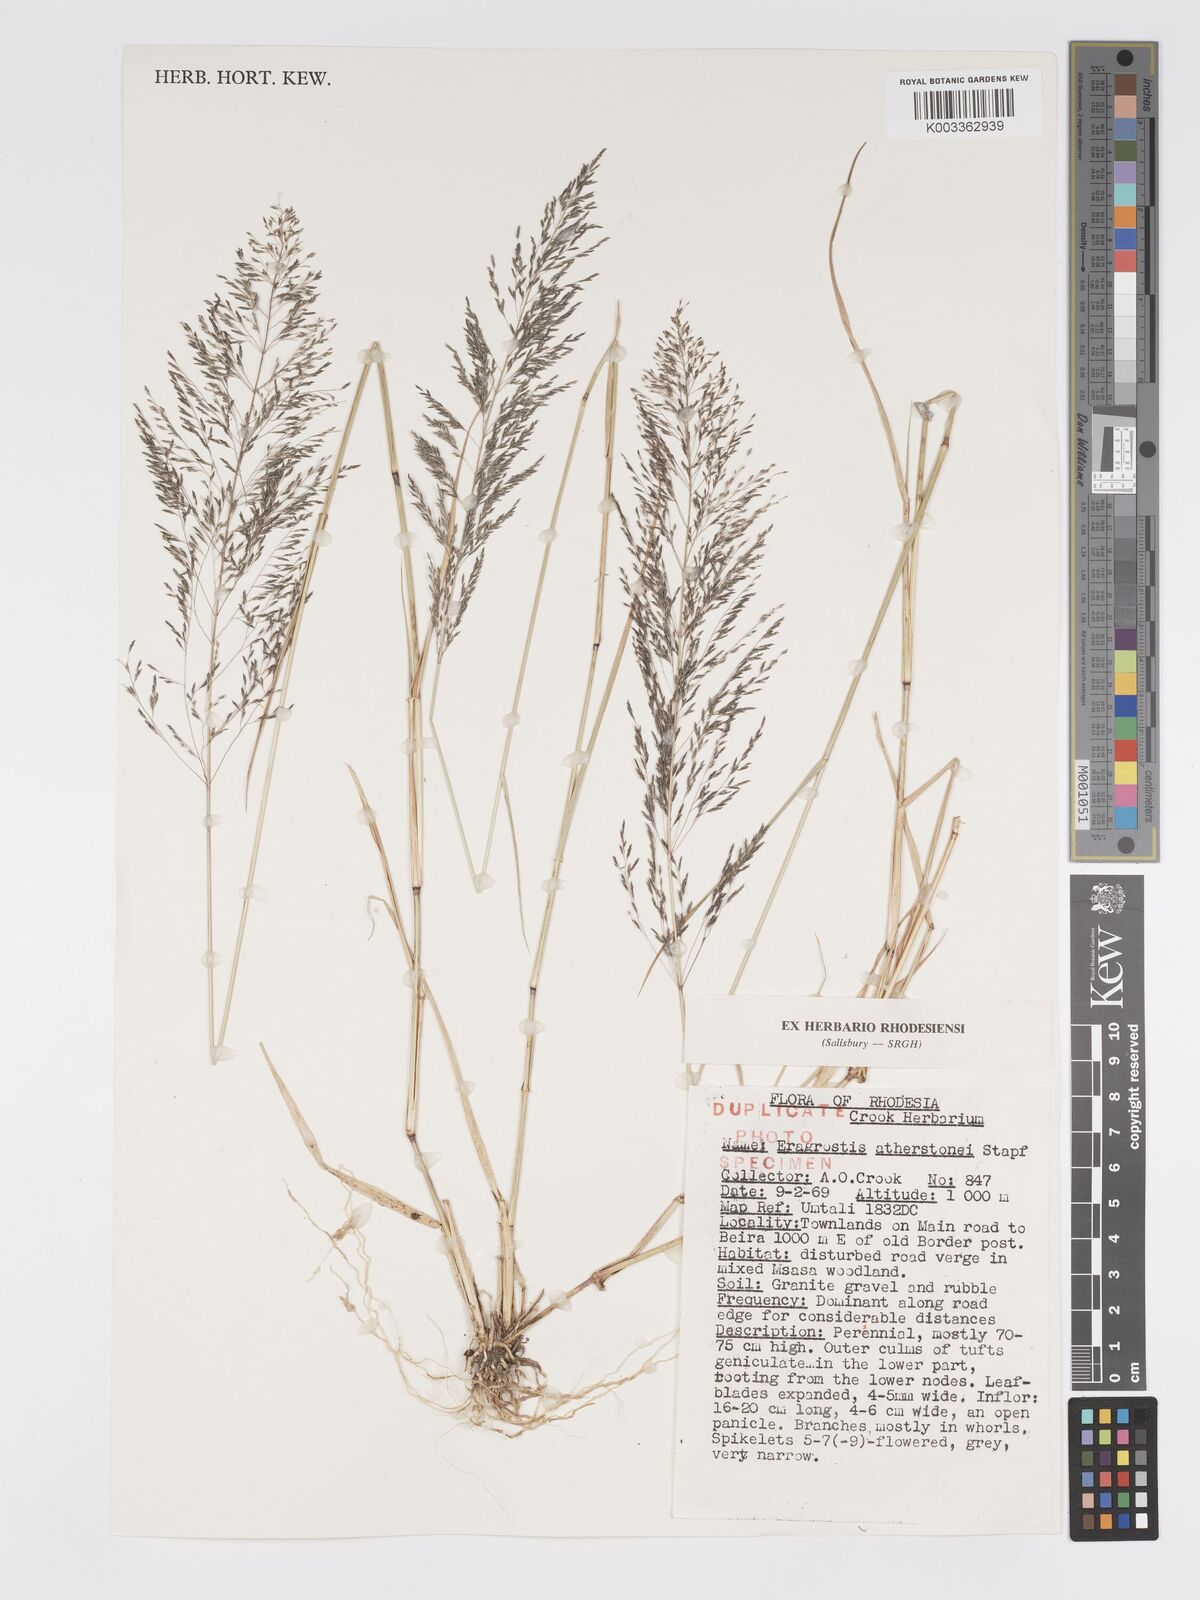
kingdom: Plantae
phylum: Tracheophyta
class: Liliopsida
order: Poales
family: Poaceae
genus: Eragrostis
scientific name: Eragrostis cylindriflora
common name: Cylinderflower lovegrass
